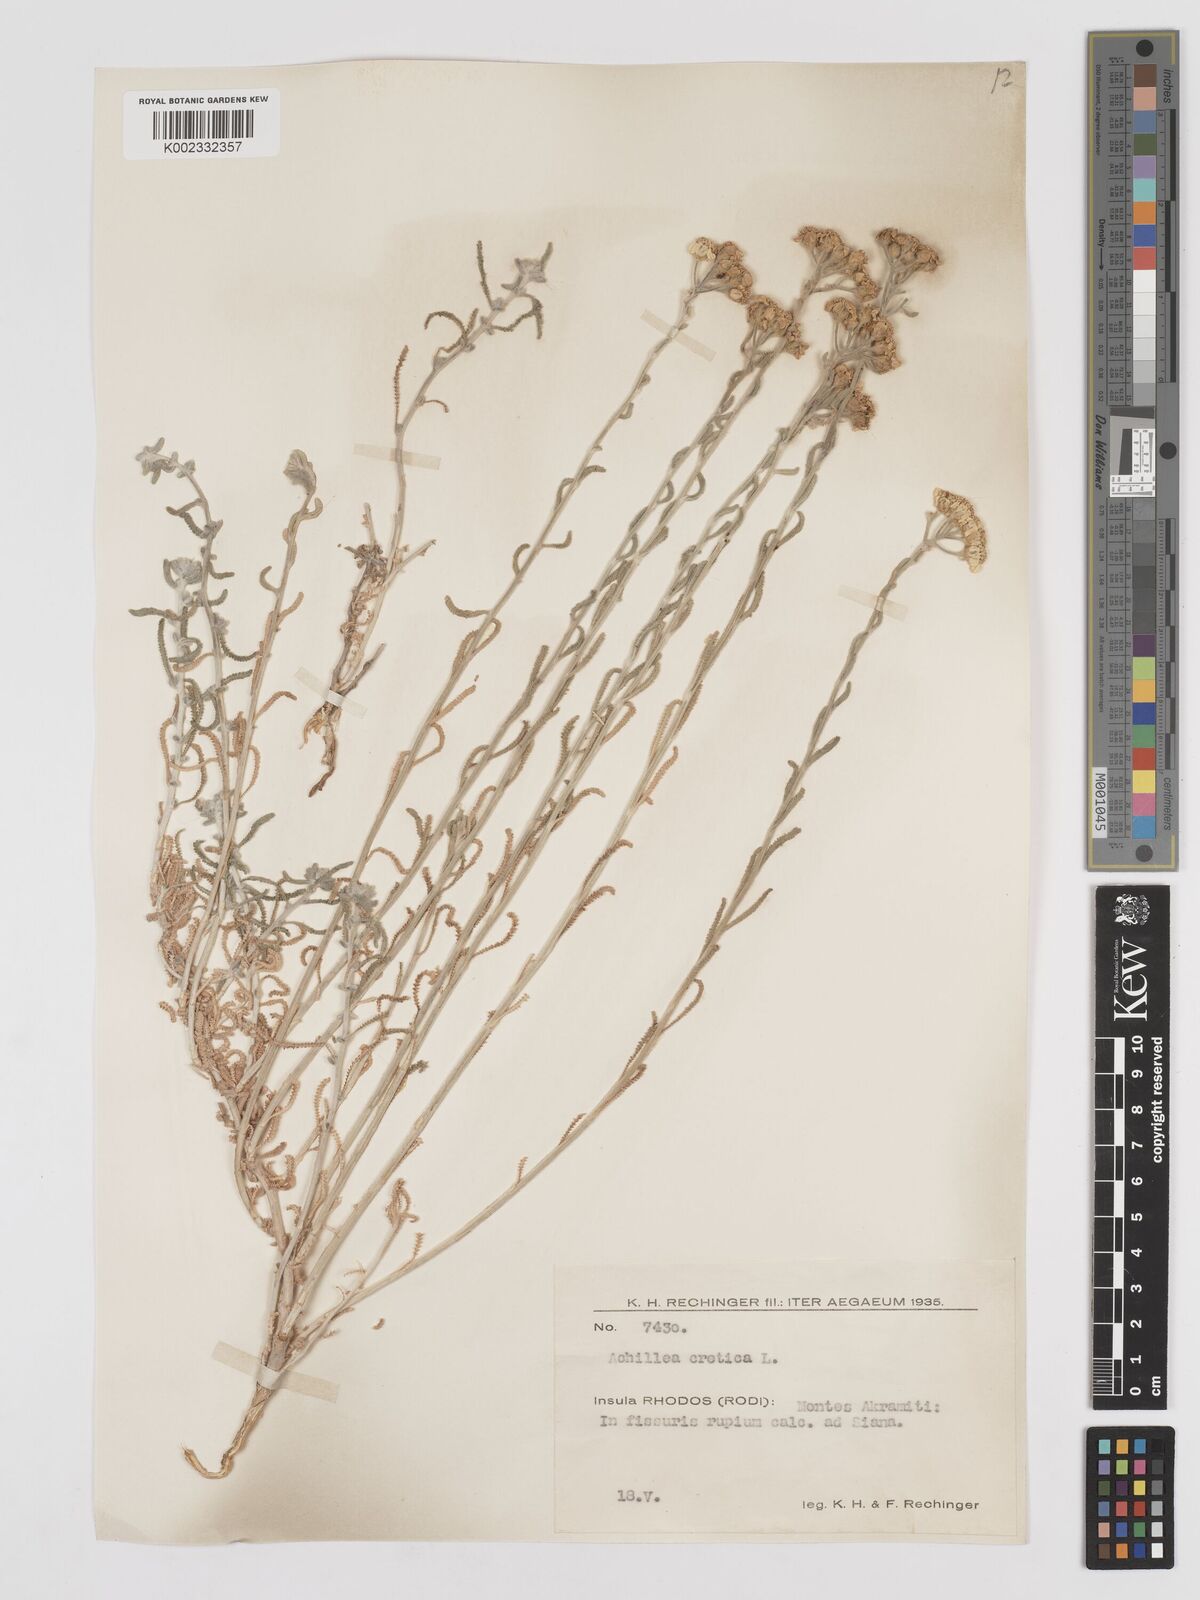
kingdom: Plantae
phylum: Tracheophyta
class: Magnoliopsida
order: Asterales
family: Asteraceae
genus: Achillea
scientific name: Achillea cretica
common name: Chamomile-leaved lavender-cotton
